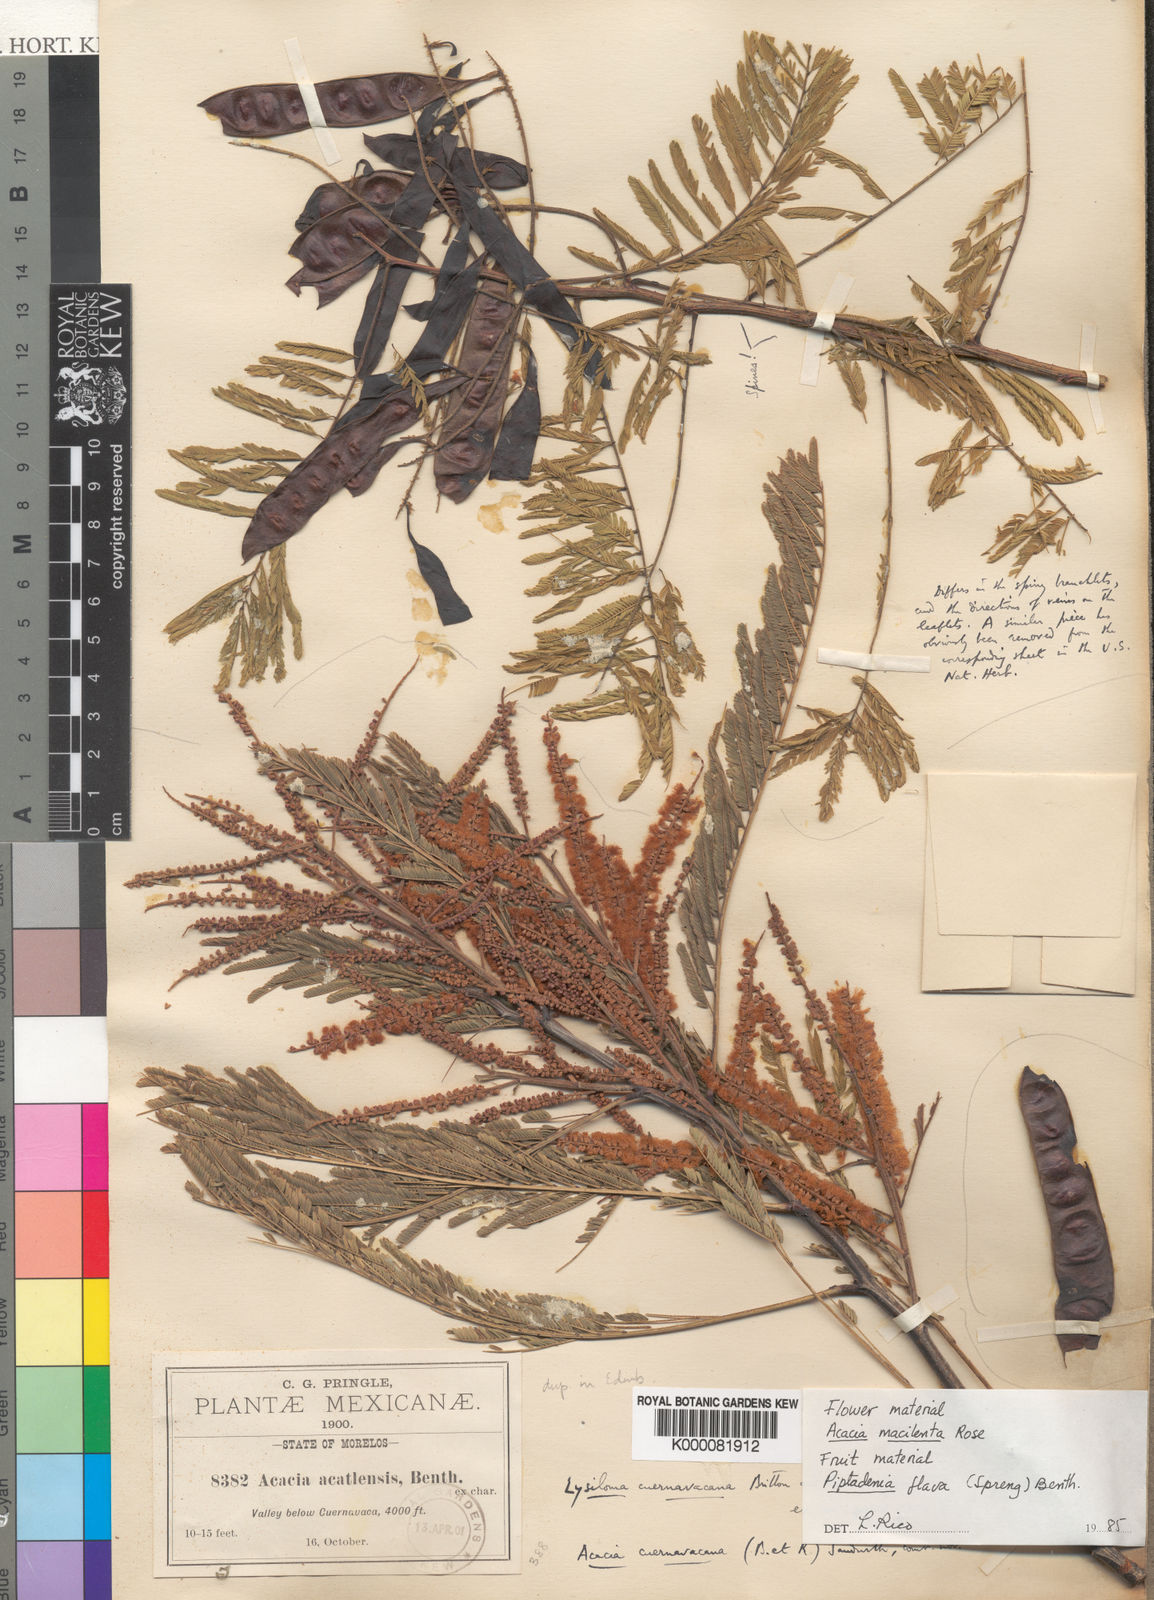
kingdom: Plantae
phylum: Tracheophyta
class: Magnoliopsida
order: Fabales
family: Fabaceae
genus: Senegalia
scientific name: Senegalia macilenta
